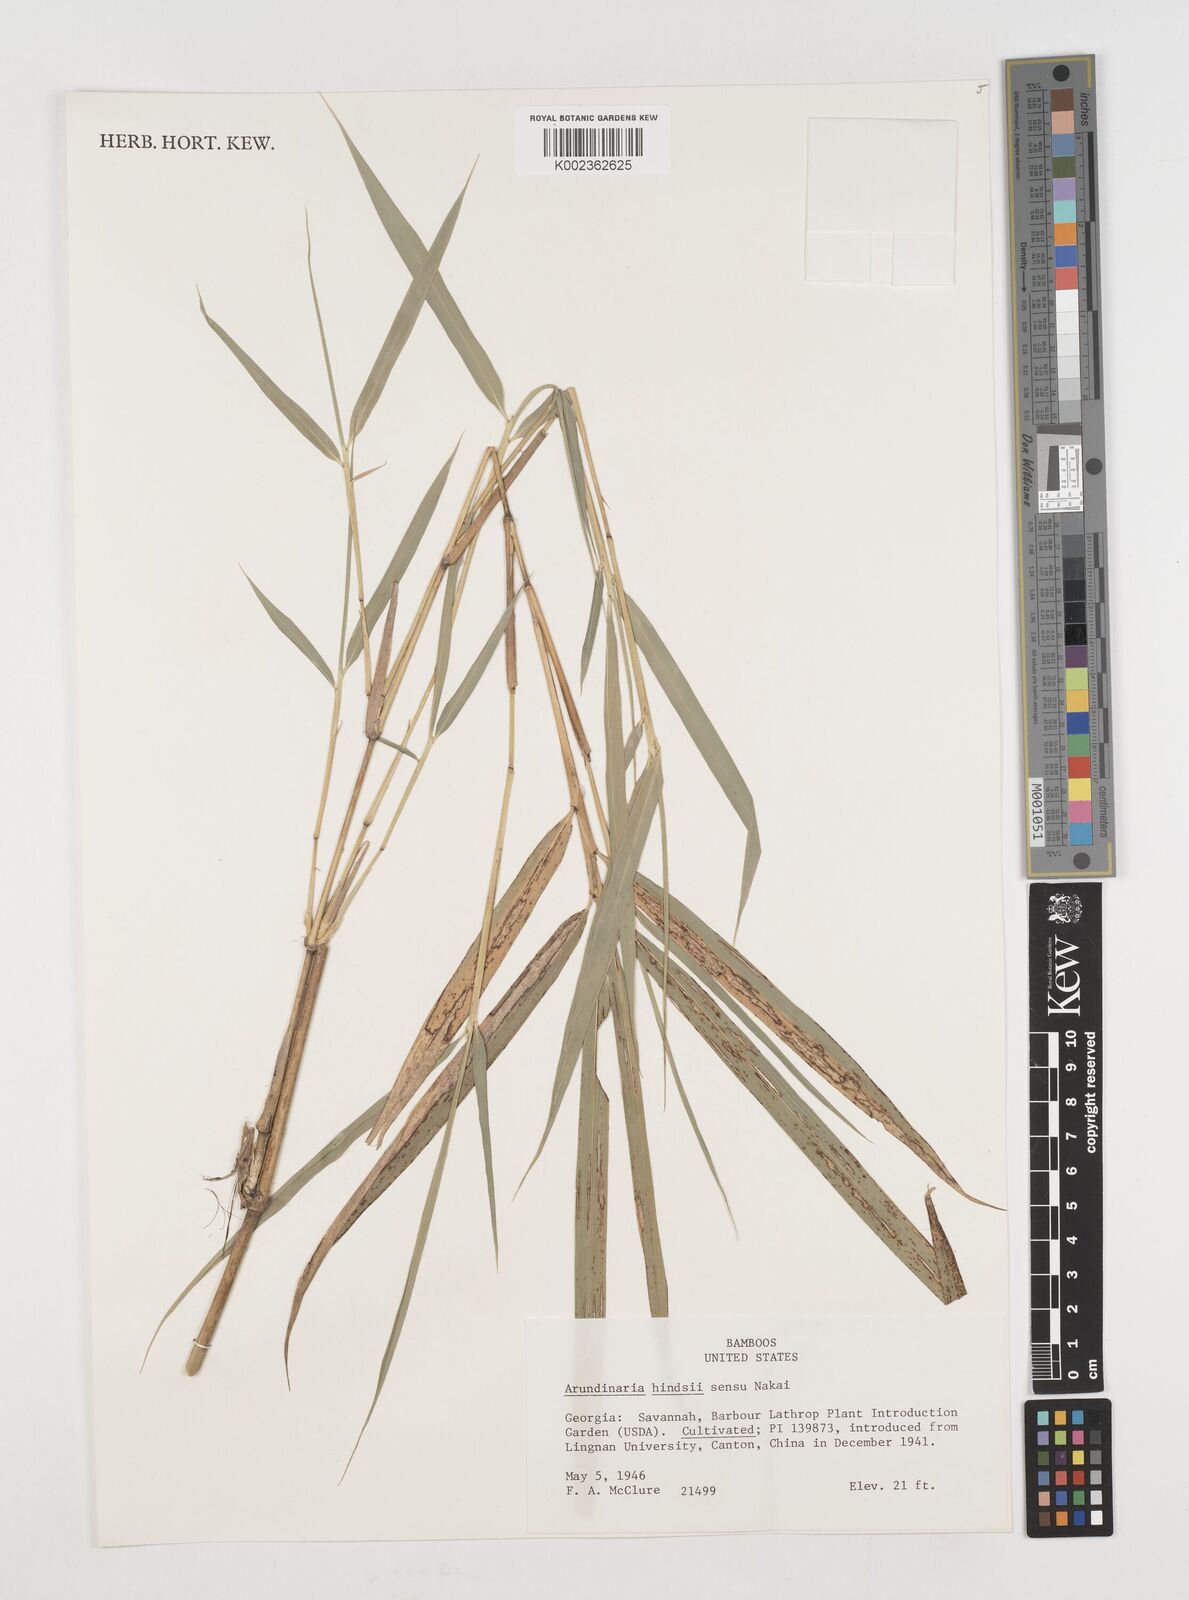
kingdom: Plantae
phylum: Tracheophyta
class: Liliopsida
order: Poales
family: Poaceae
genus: Pseudosasa
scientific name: Pseudosasa hindsii
